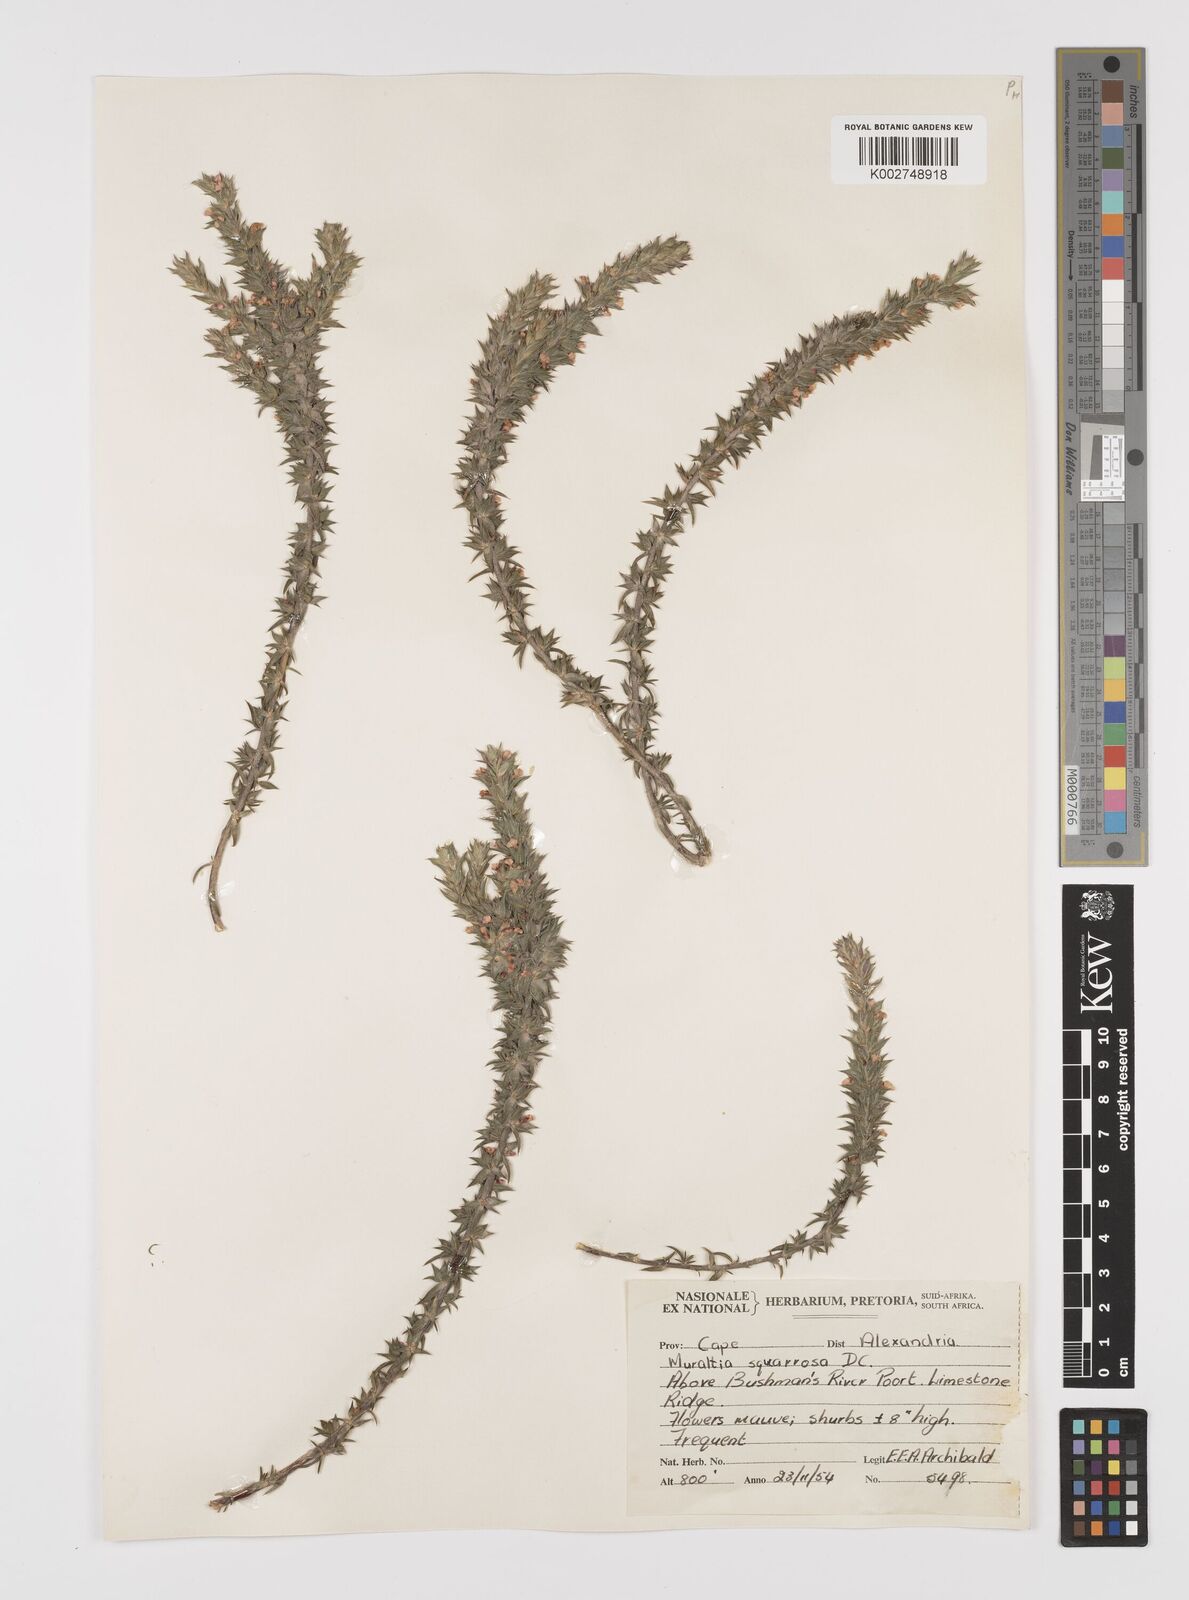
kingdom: Plantae
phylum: Tracheophyta
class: Magnoliopsida
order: Fabales
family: Polygalaceae
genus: Muraltia
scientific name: Muraltia squarrosa
